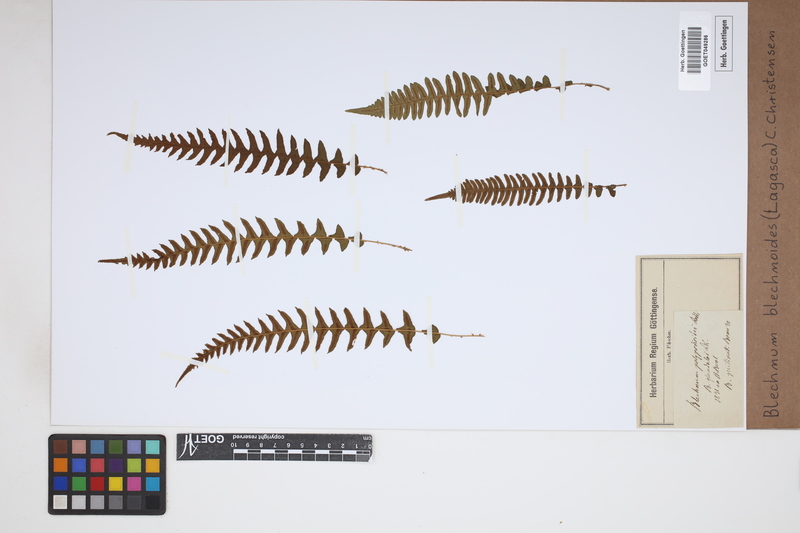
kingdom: Plantae
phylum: Tracheophyta
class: Polypodiopsida
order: Polypodiales
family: Blechnaceae
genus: Blechnum
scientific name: Blechnum polypodioides
